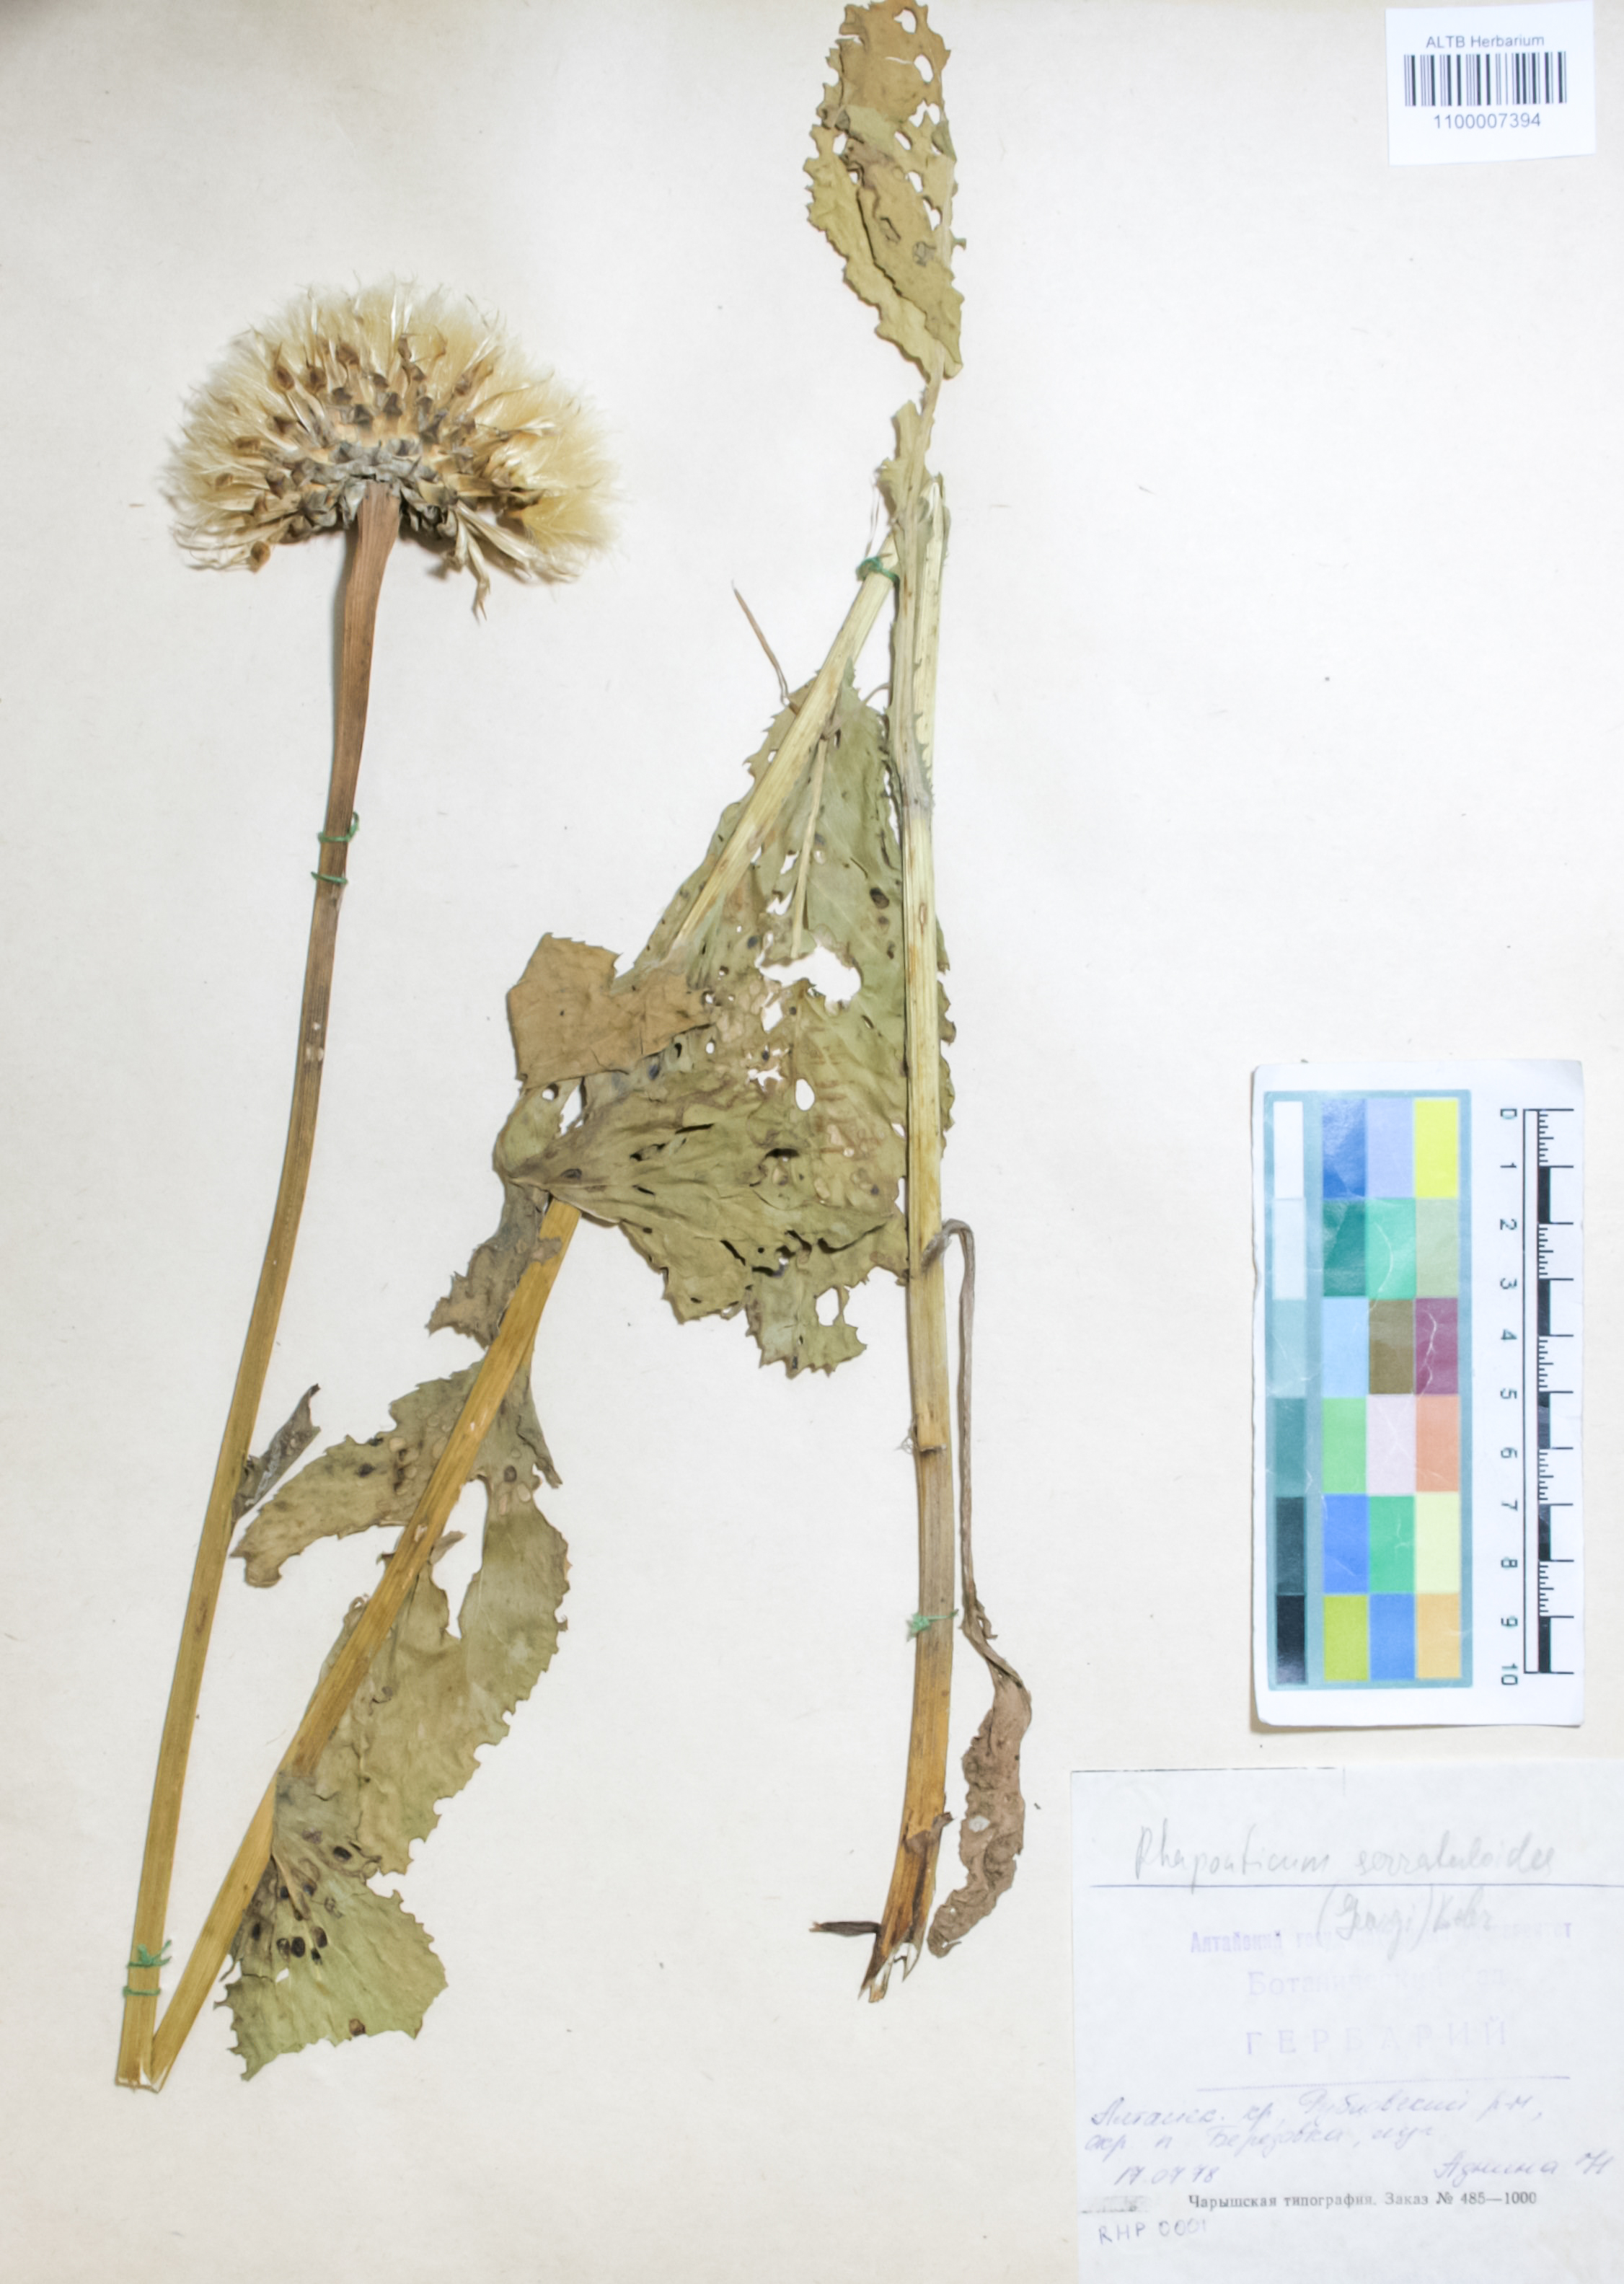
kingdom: Plantae
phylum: Tracheophyta
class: Magnoliopsida
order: Asterales
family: Asteraceae
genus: Leuzea
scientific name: Leuzea altaica
